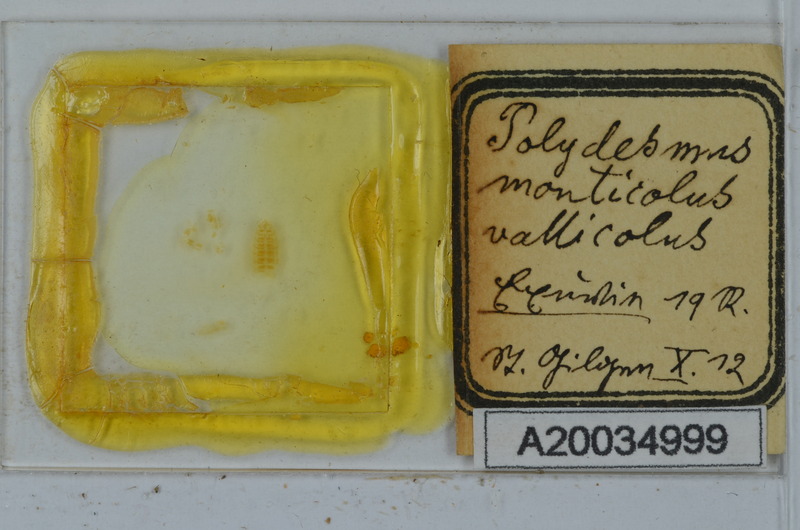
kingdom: Animalia
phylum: Arthropoda
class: Diplopoda
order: Polydesmida
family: Polydesmidae
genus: Polydesmus
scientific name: Polydesmus monticola
